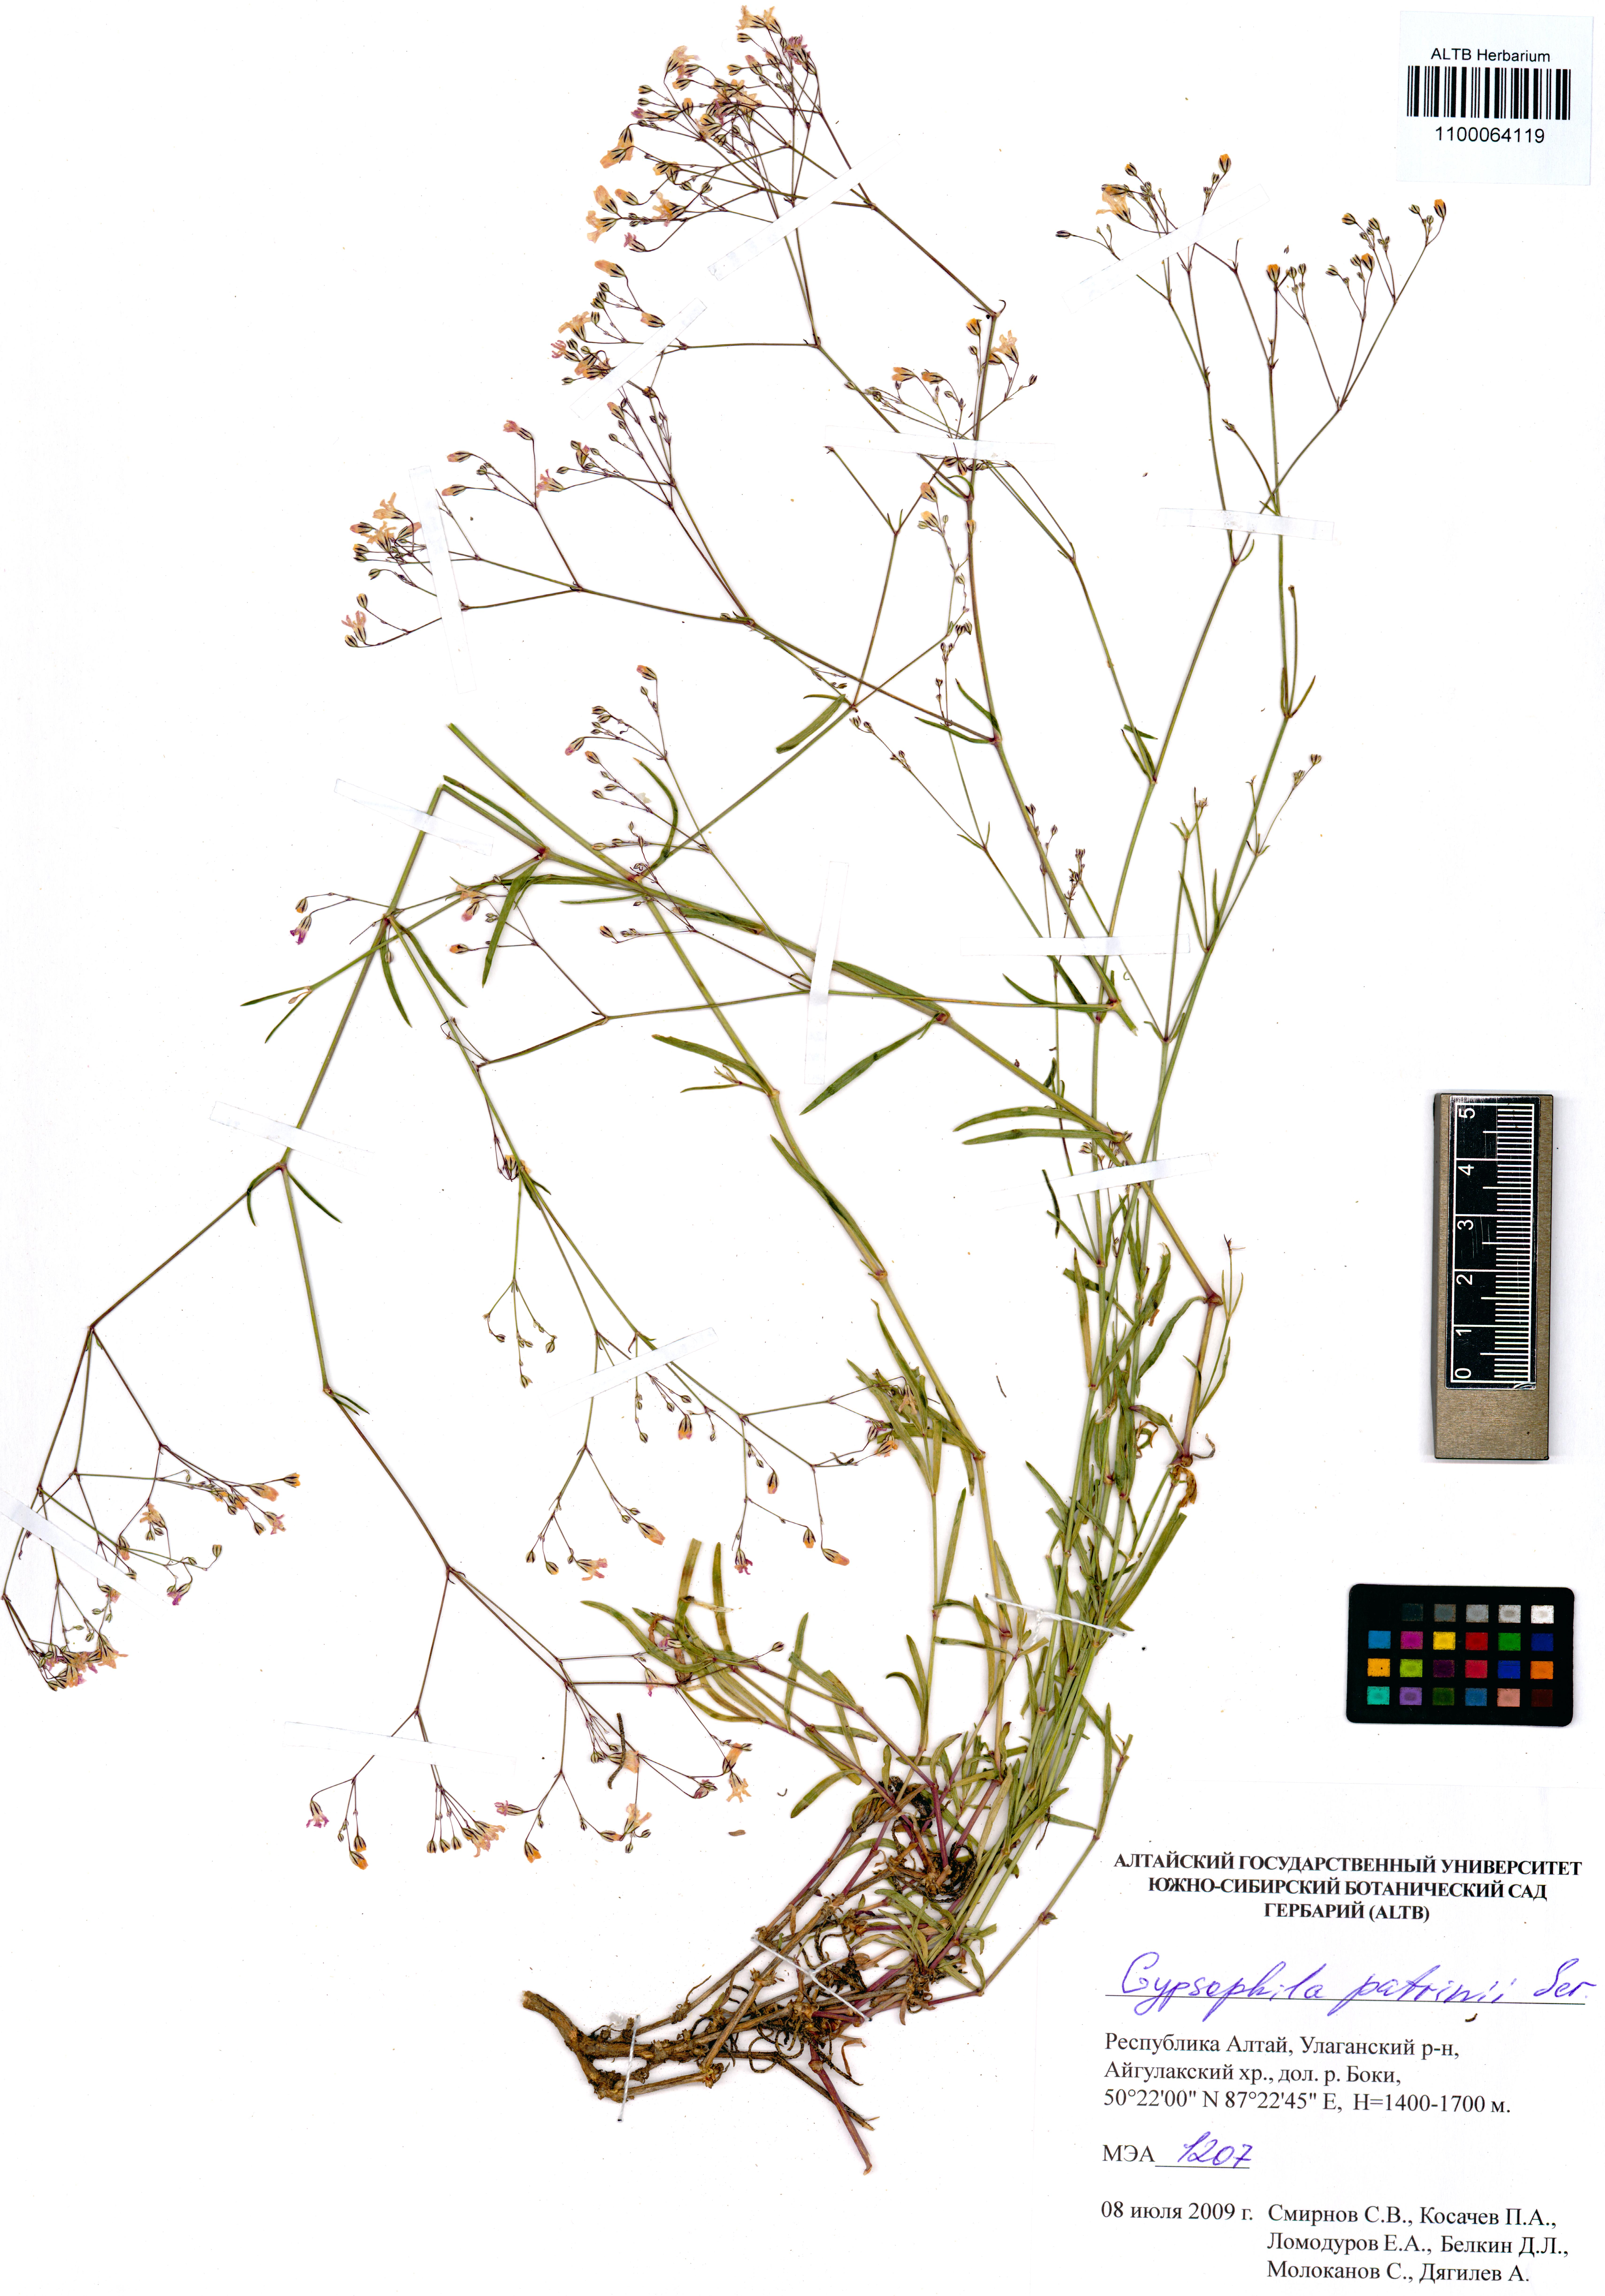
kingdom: Plantae
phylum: Tracheophyta
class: Magnoliopsida
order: Caryophyllales
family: Caryophyllaceae
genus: Gypsophila
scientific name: Gypsophila patrinii
